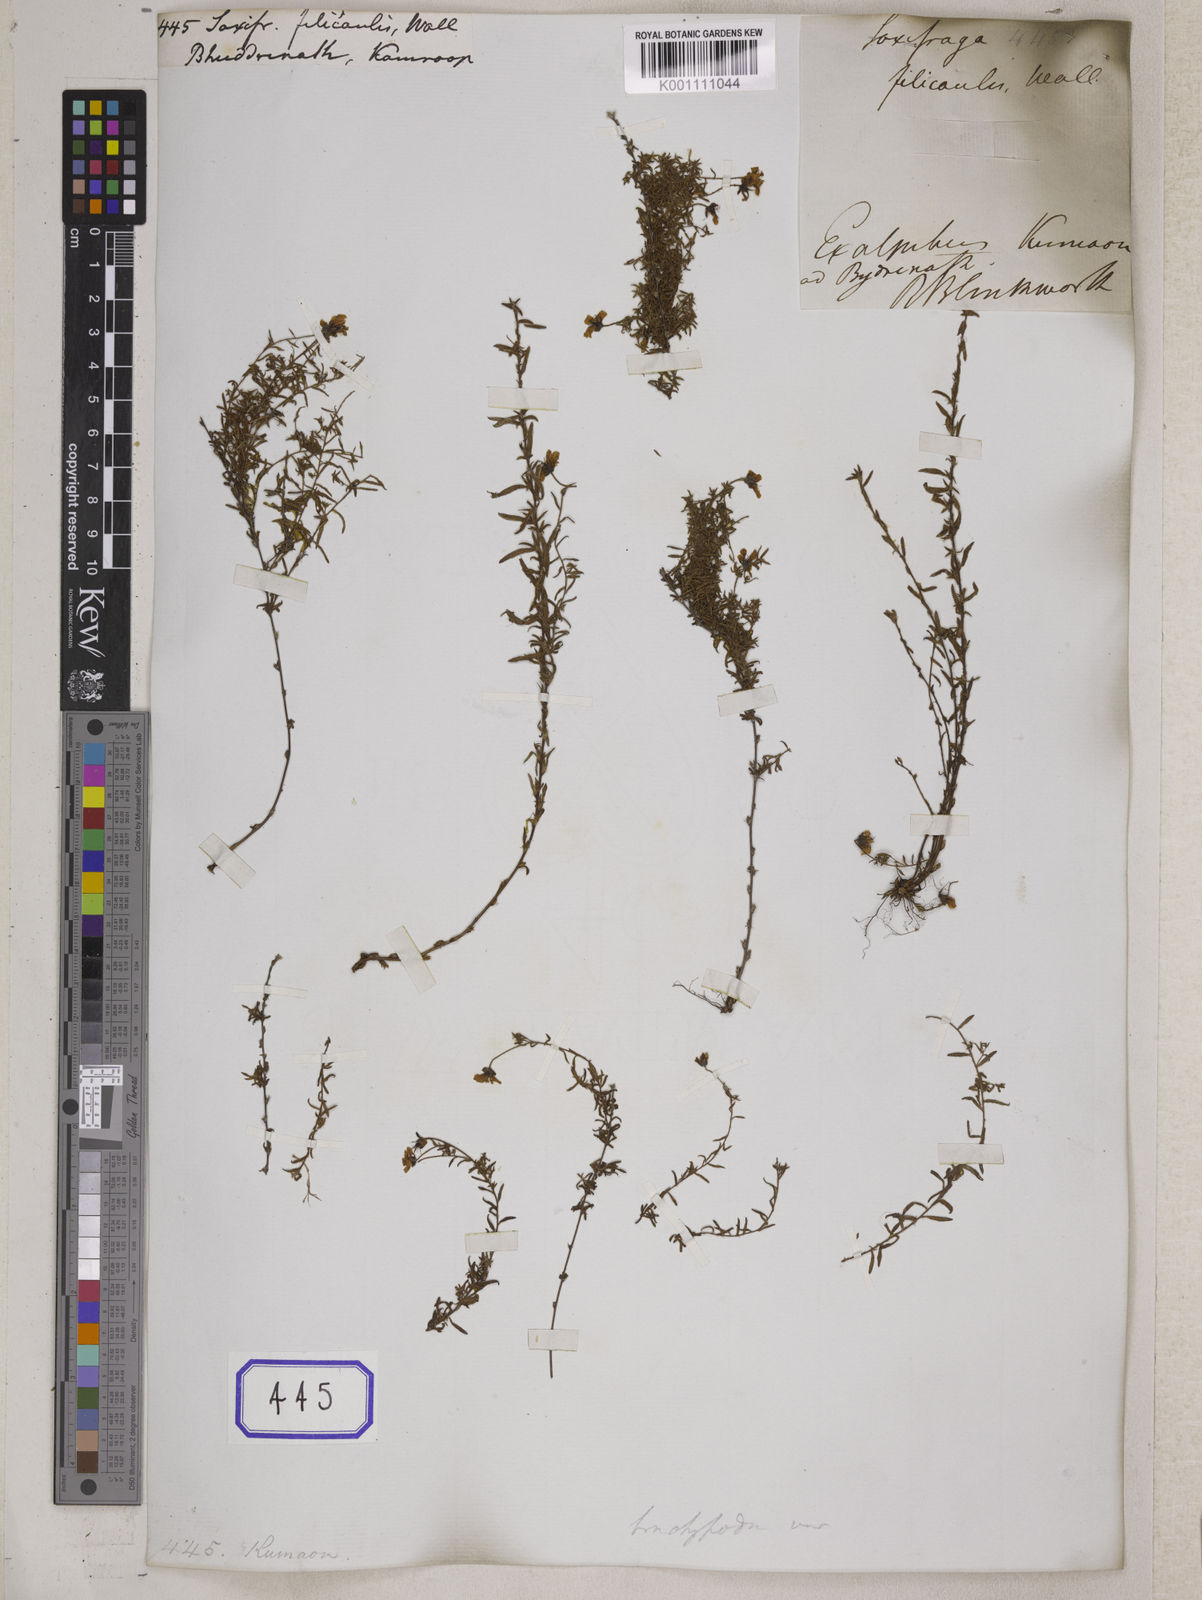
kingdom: Plantae
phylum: Tracheophyta
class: Magnoliopsida
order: Saxifragales
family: Saxifragaceae
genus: Saxifraga
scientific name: Saxifraga
